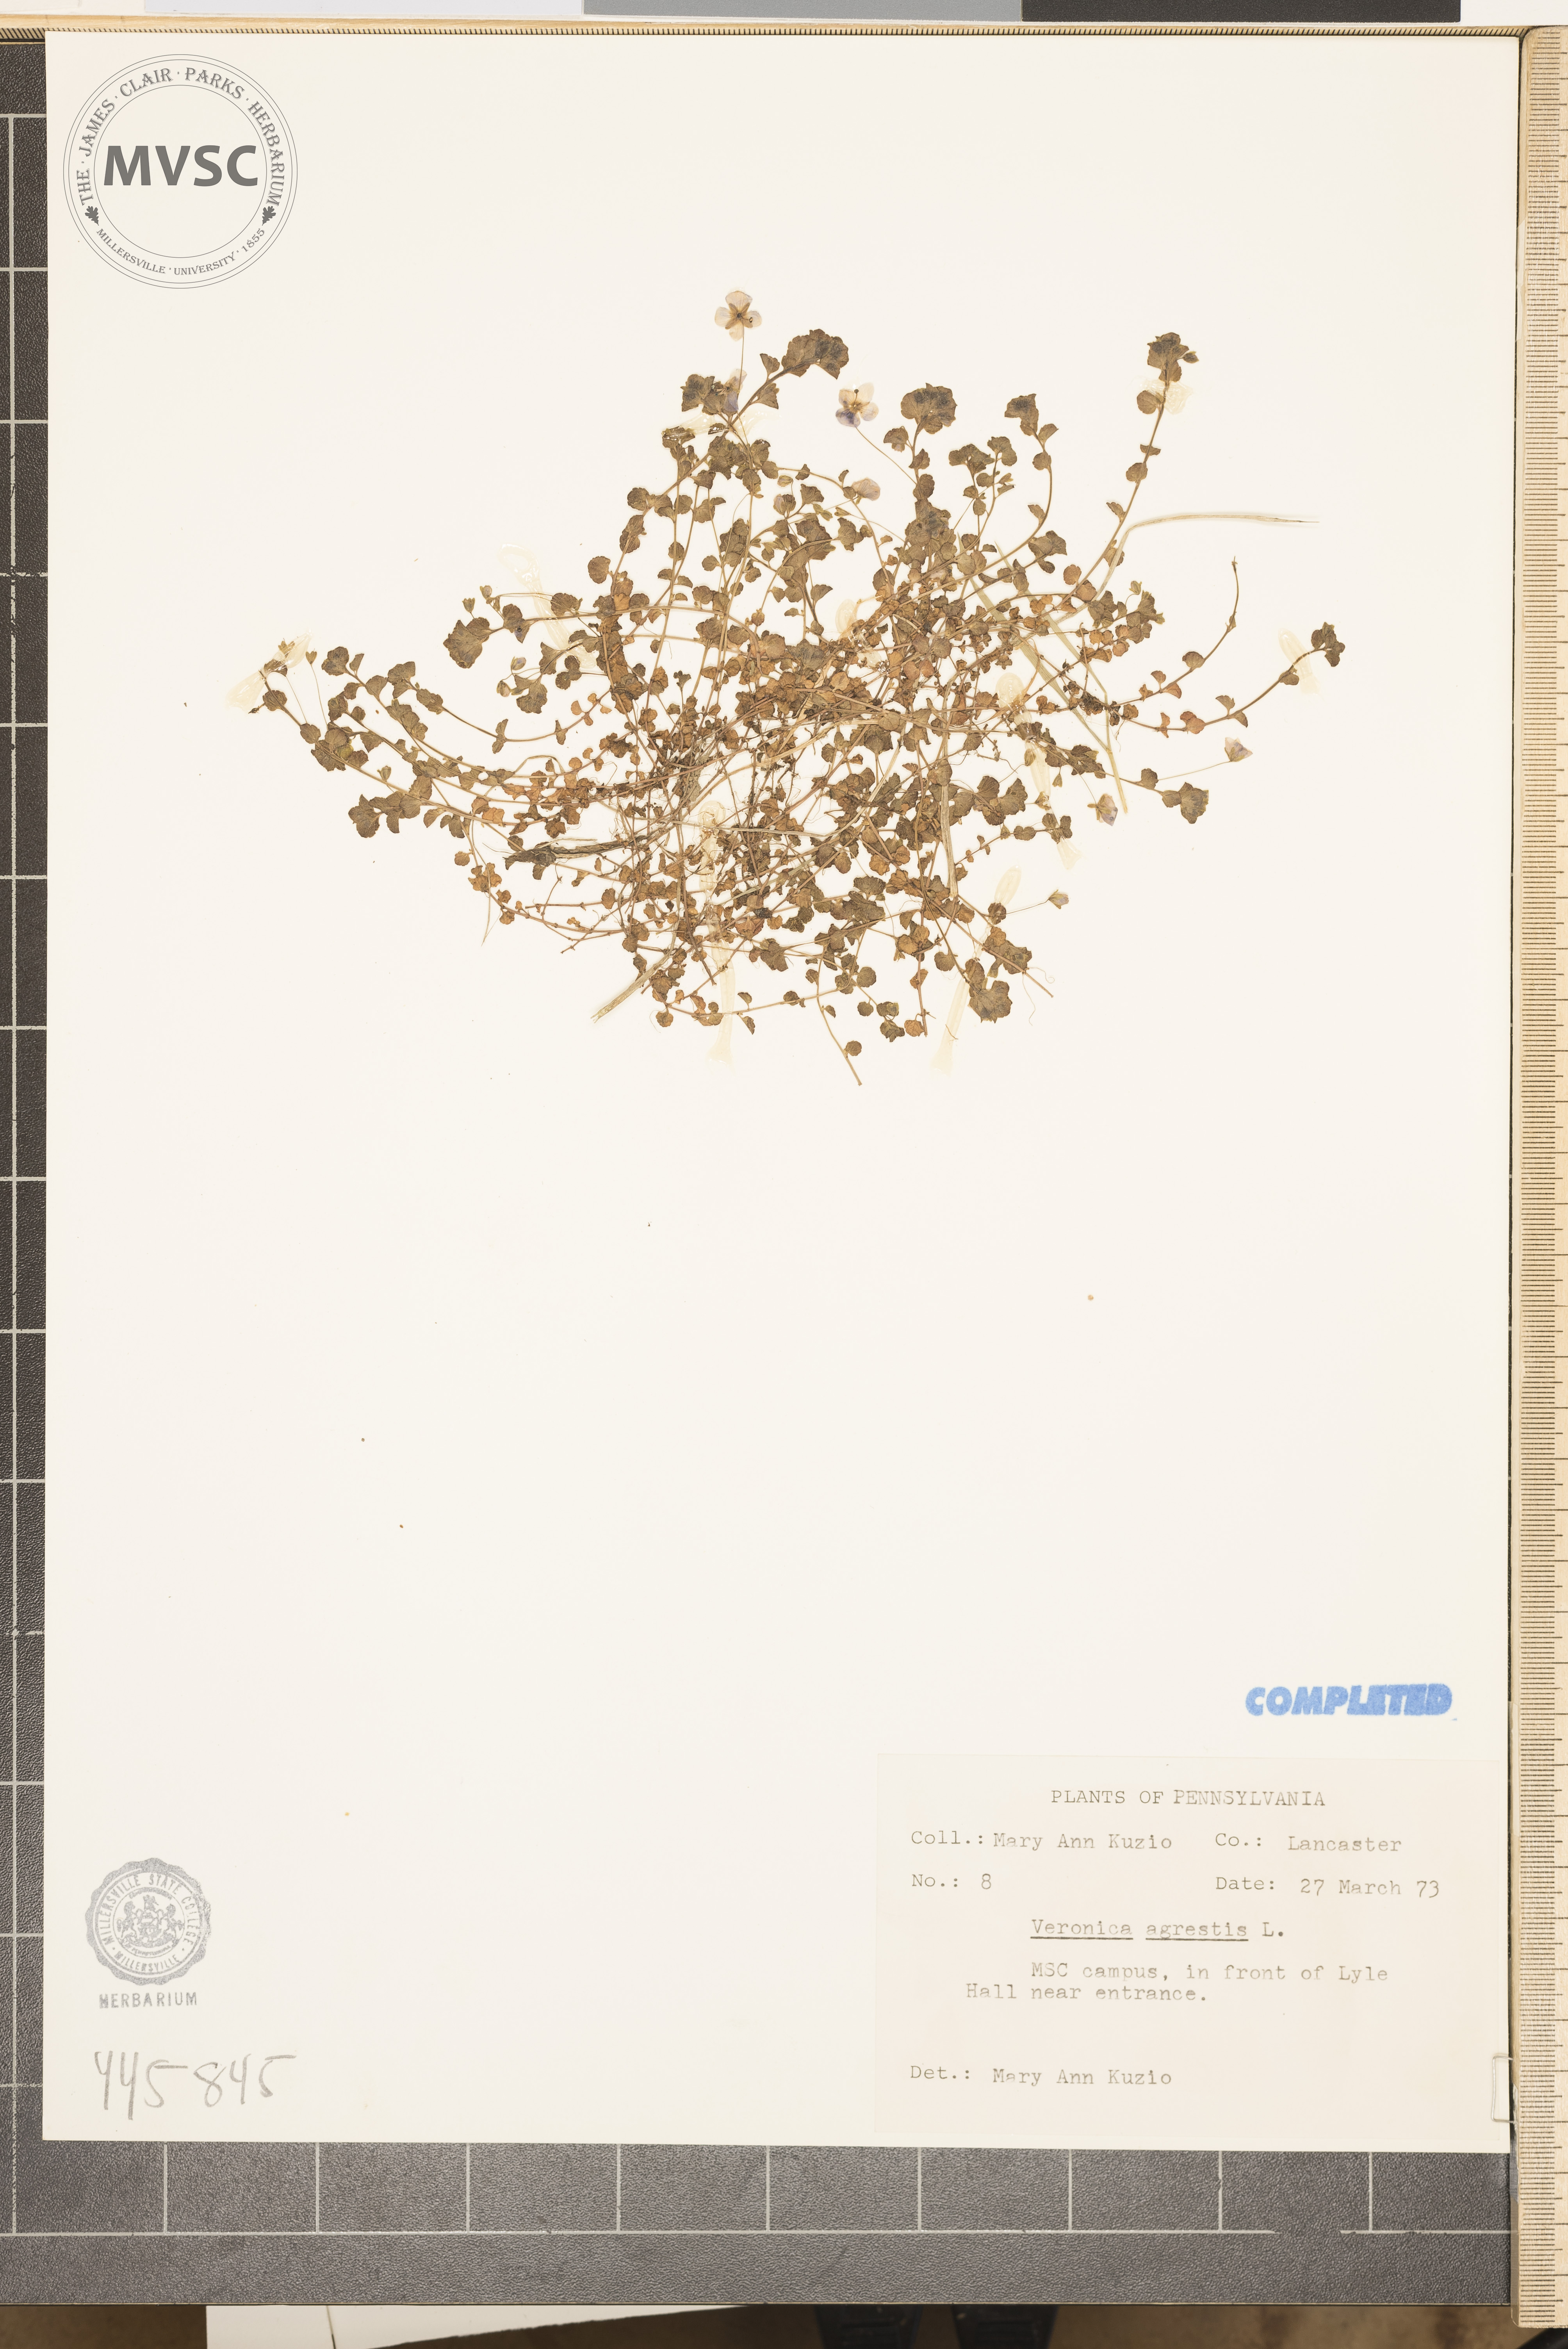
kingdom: Plantae
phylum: Tracheophyta
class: Magnoliopsida
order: Lamiales
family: Plantaginaceae
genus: Veronica
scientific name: Veronica agrestis
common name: Green field-speedwell
